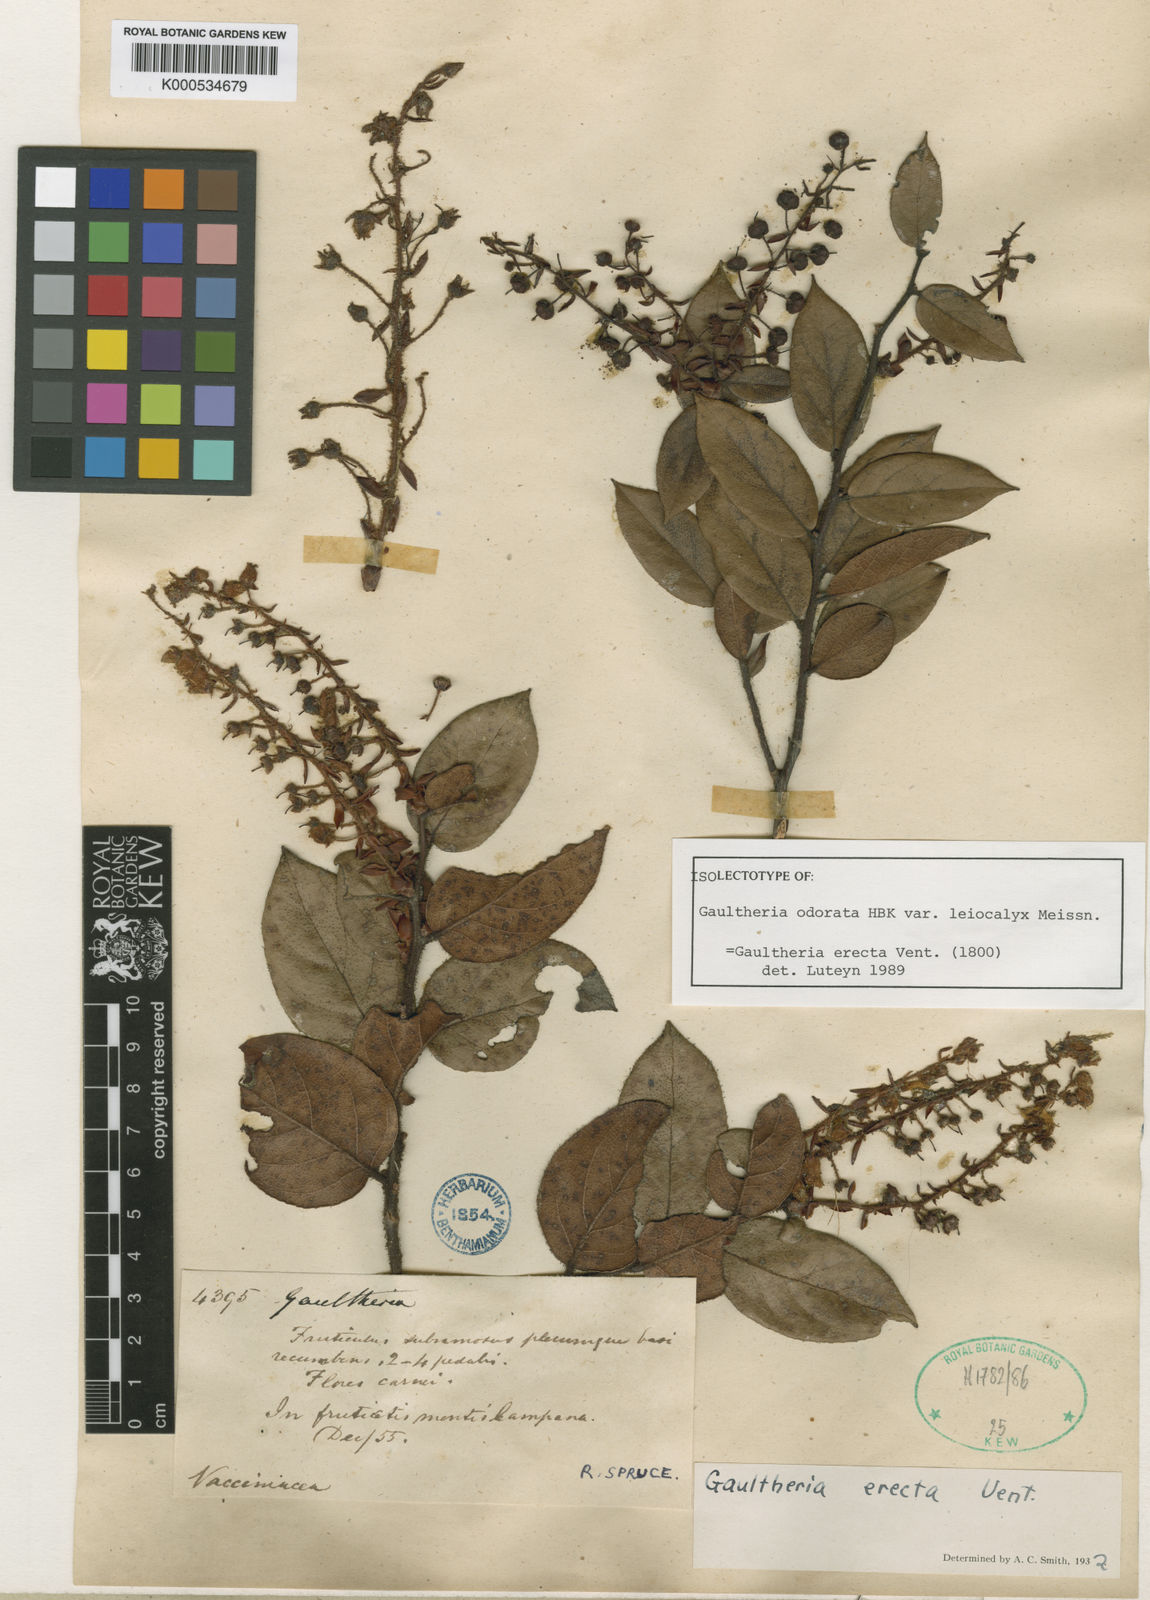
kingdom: Plantae
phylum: Tracheophyta
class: Magnoliopsida
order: Ericales
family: Ericaceae
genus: Gaultheria
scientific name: Gaultheria erecta
